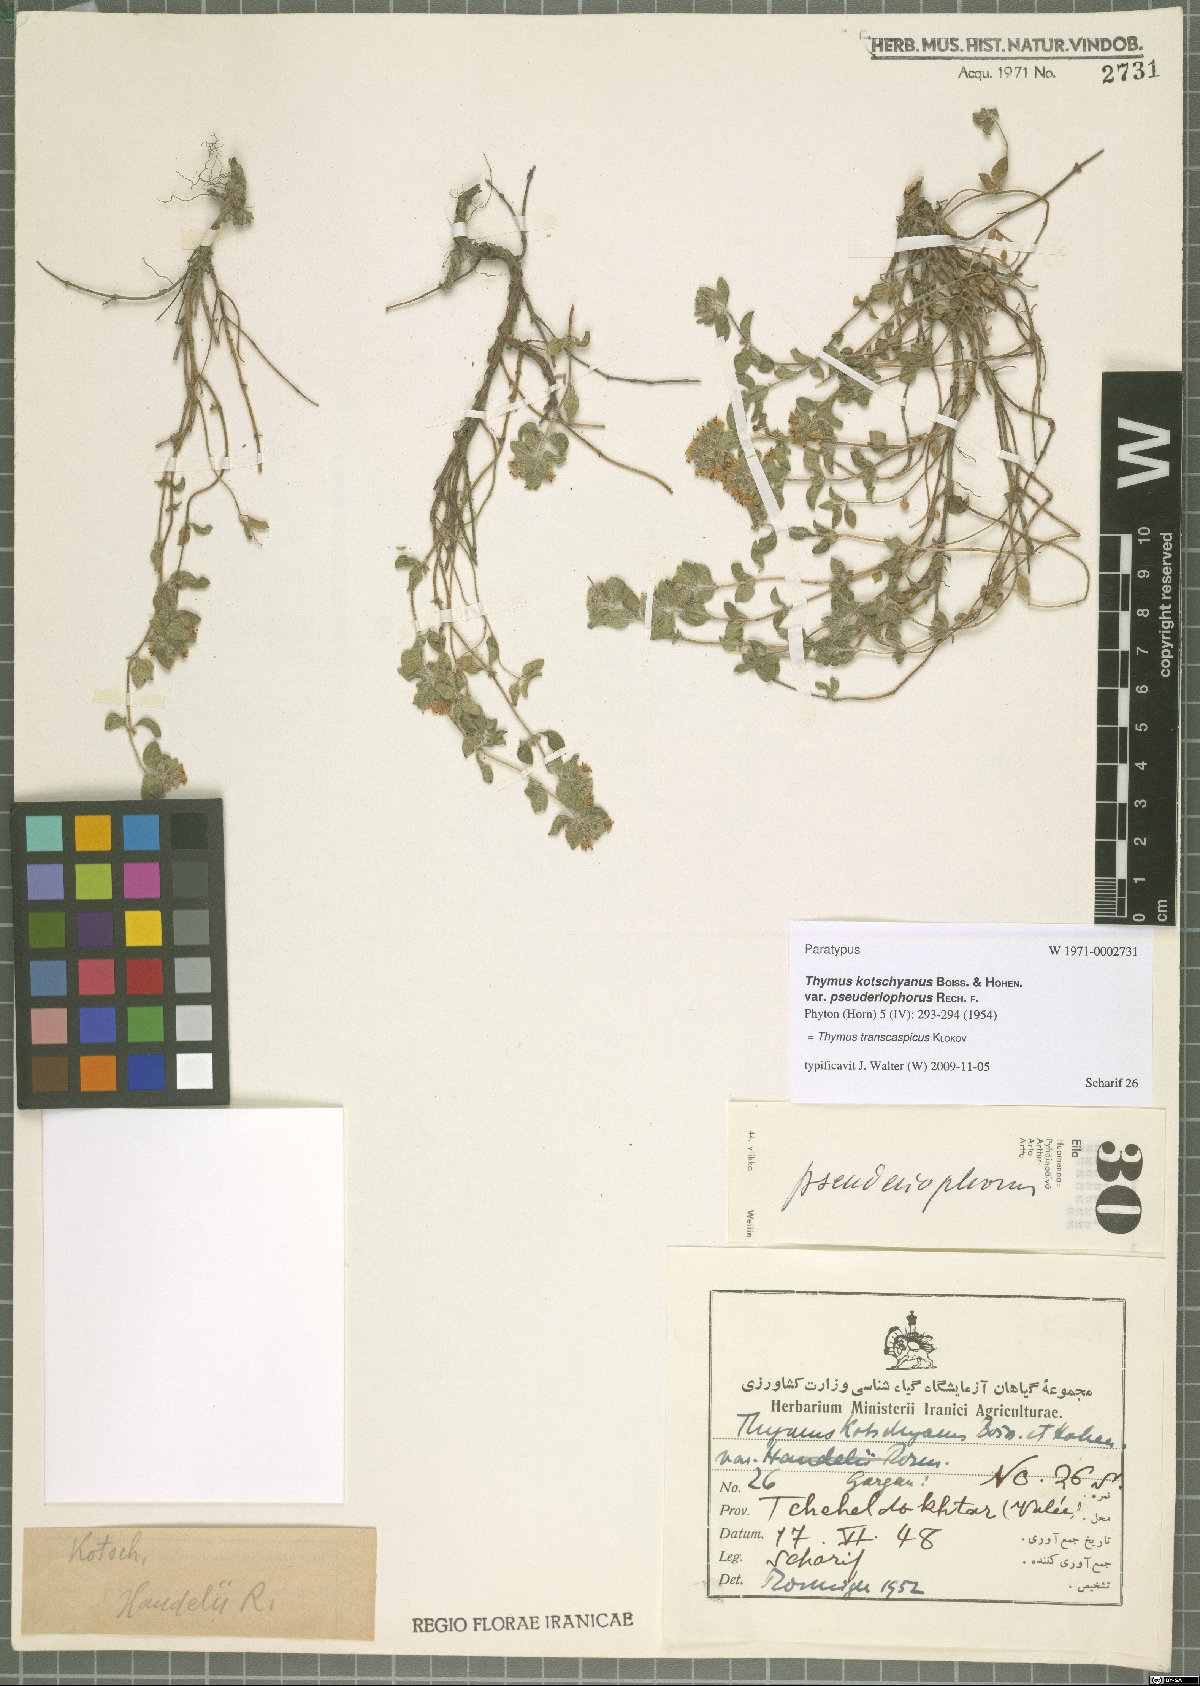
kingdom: Plantae
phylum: Tracheophyta
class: Magnoliopsida
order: Lamiales
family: Lamiaceae
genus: Thymus
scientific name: Thymus transcaspicus
